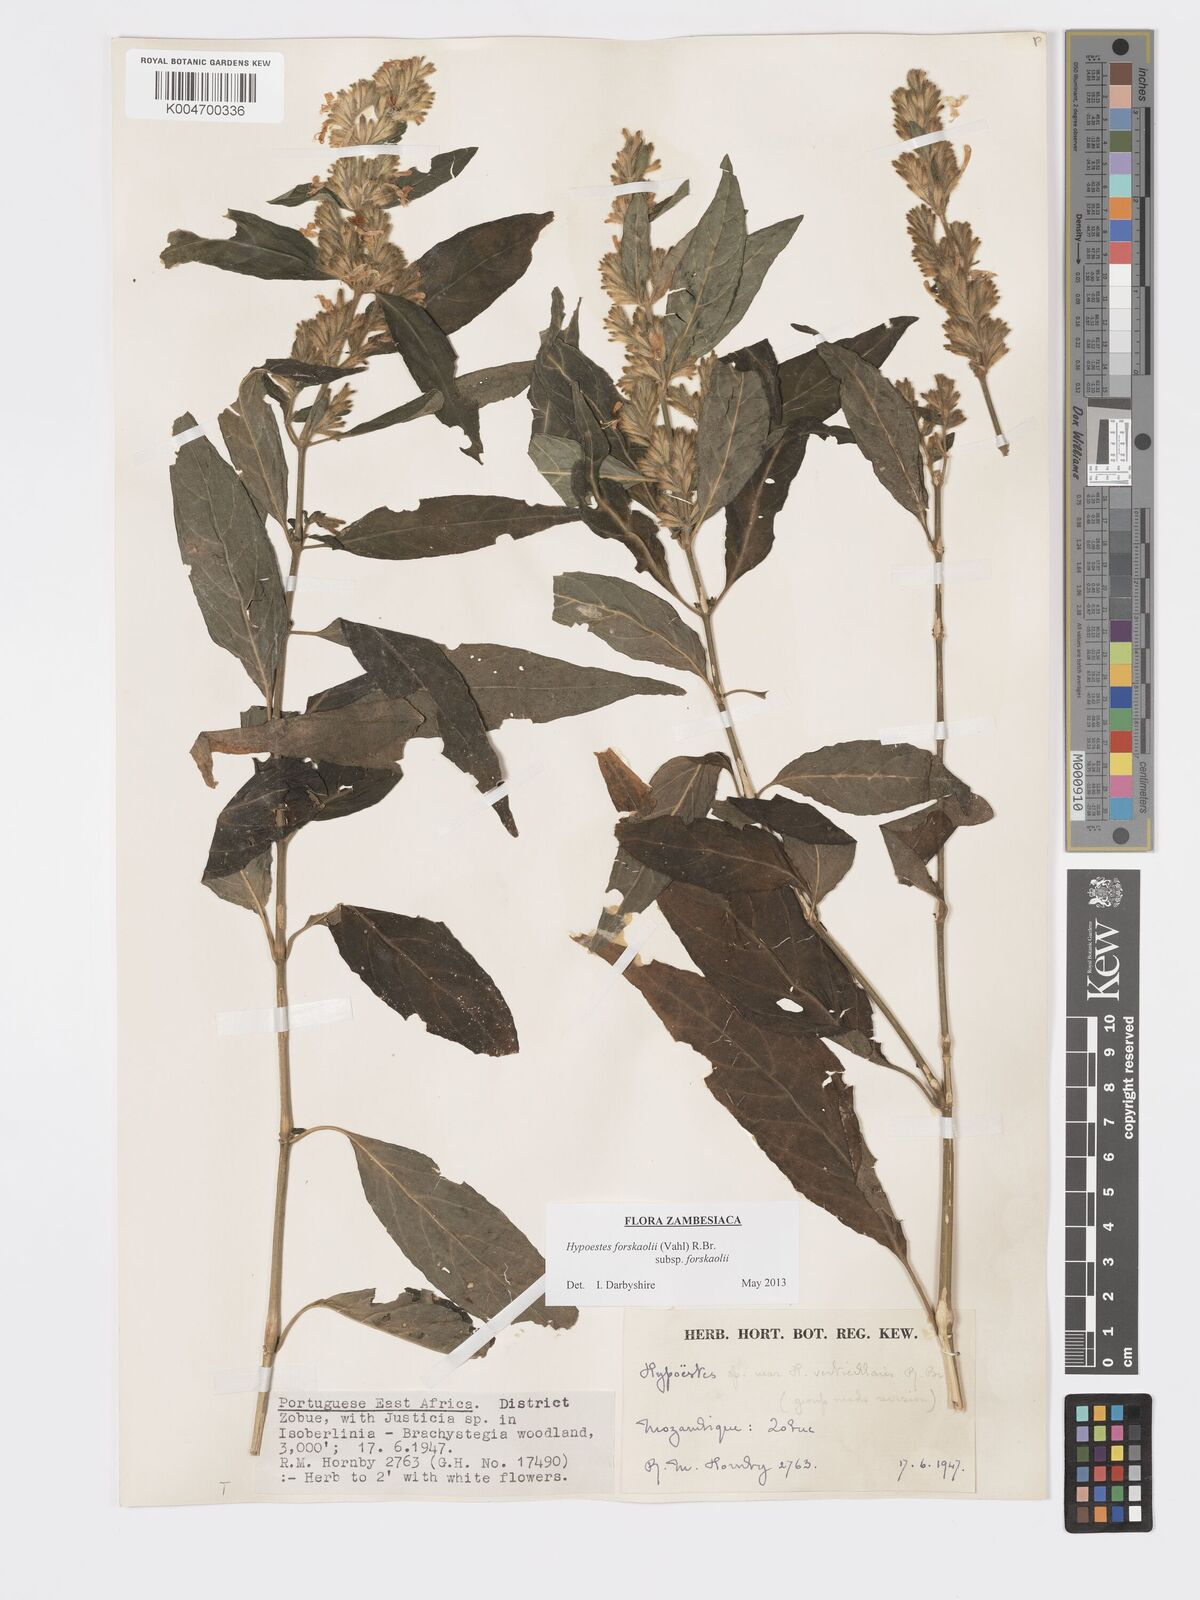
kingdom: Plantae
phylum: Tracheophyta
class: Magnoliopsida
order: Lamiales
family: Acanthaceae
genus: Hypoestes
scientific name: Hypoestes forskaolii
